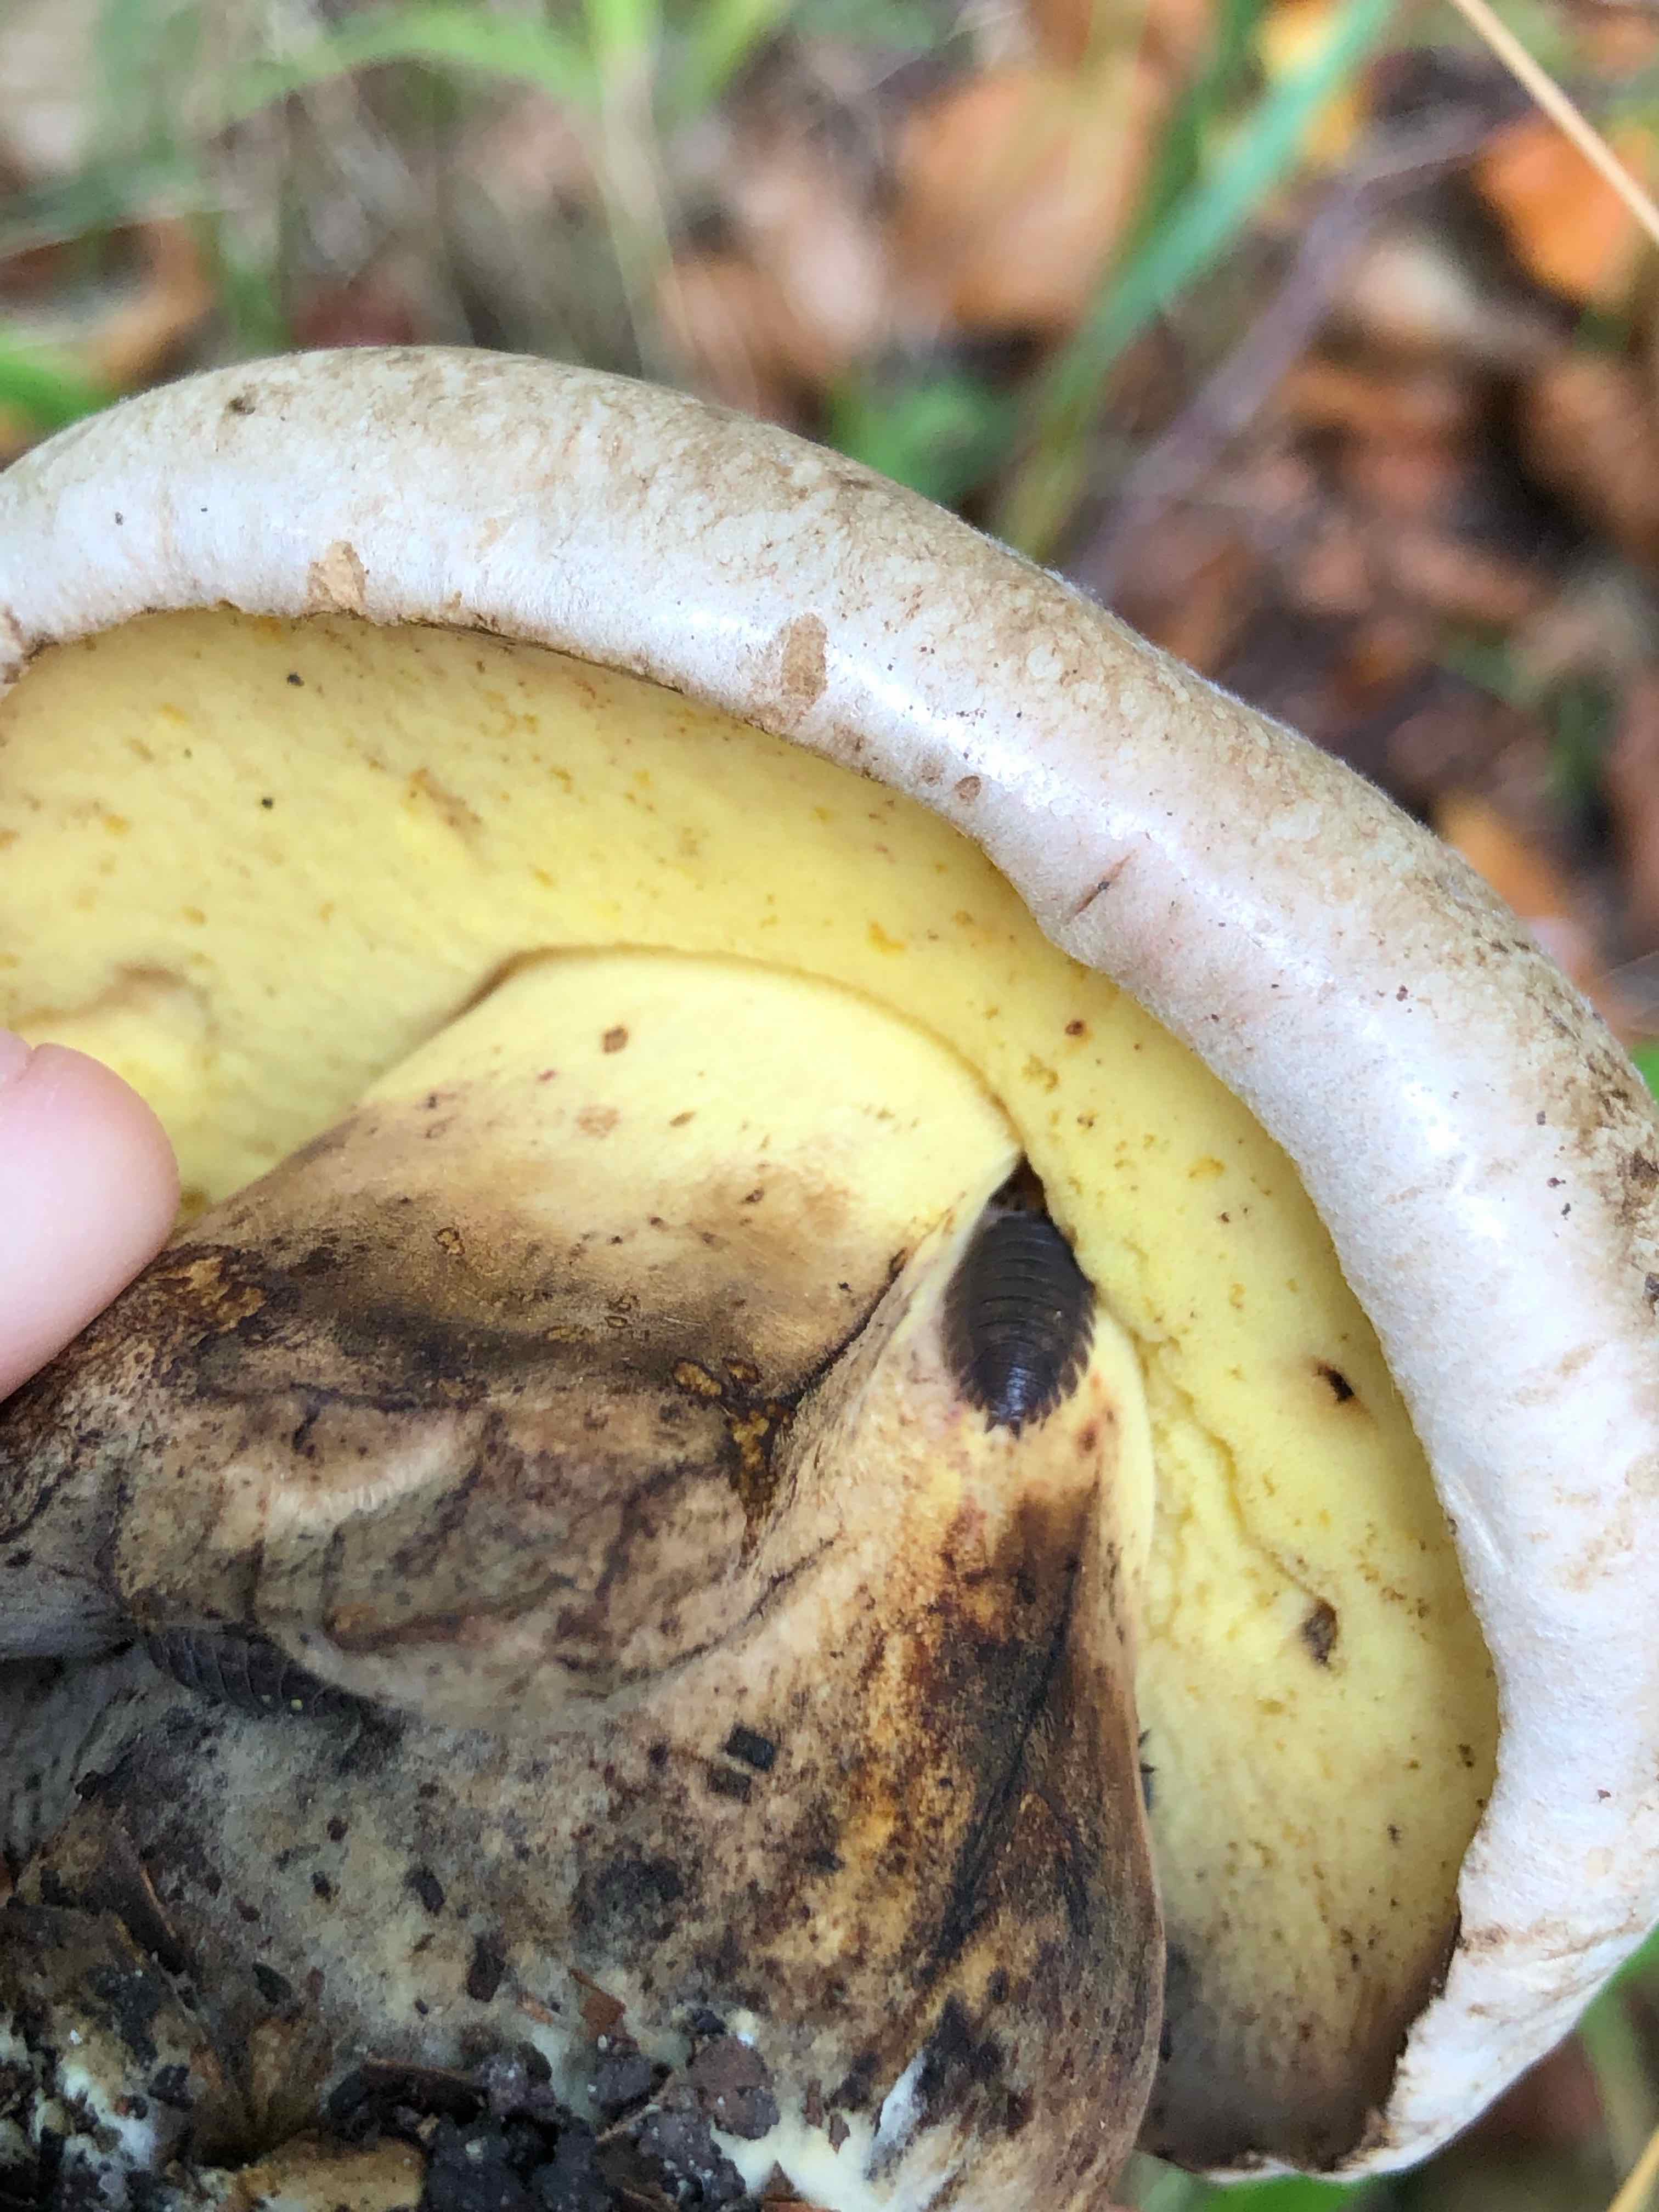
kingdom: Fungi
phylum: Basidiomycota
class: Agaricomycetes
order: Boletales
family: Boletaceae
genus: Caloboletus
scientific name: Caloboletus radicans
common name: rod-rørhat
